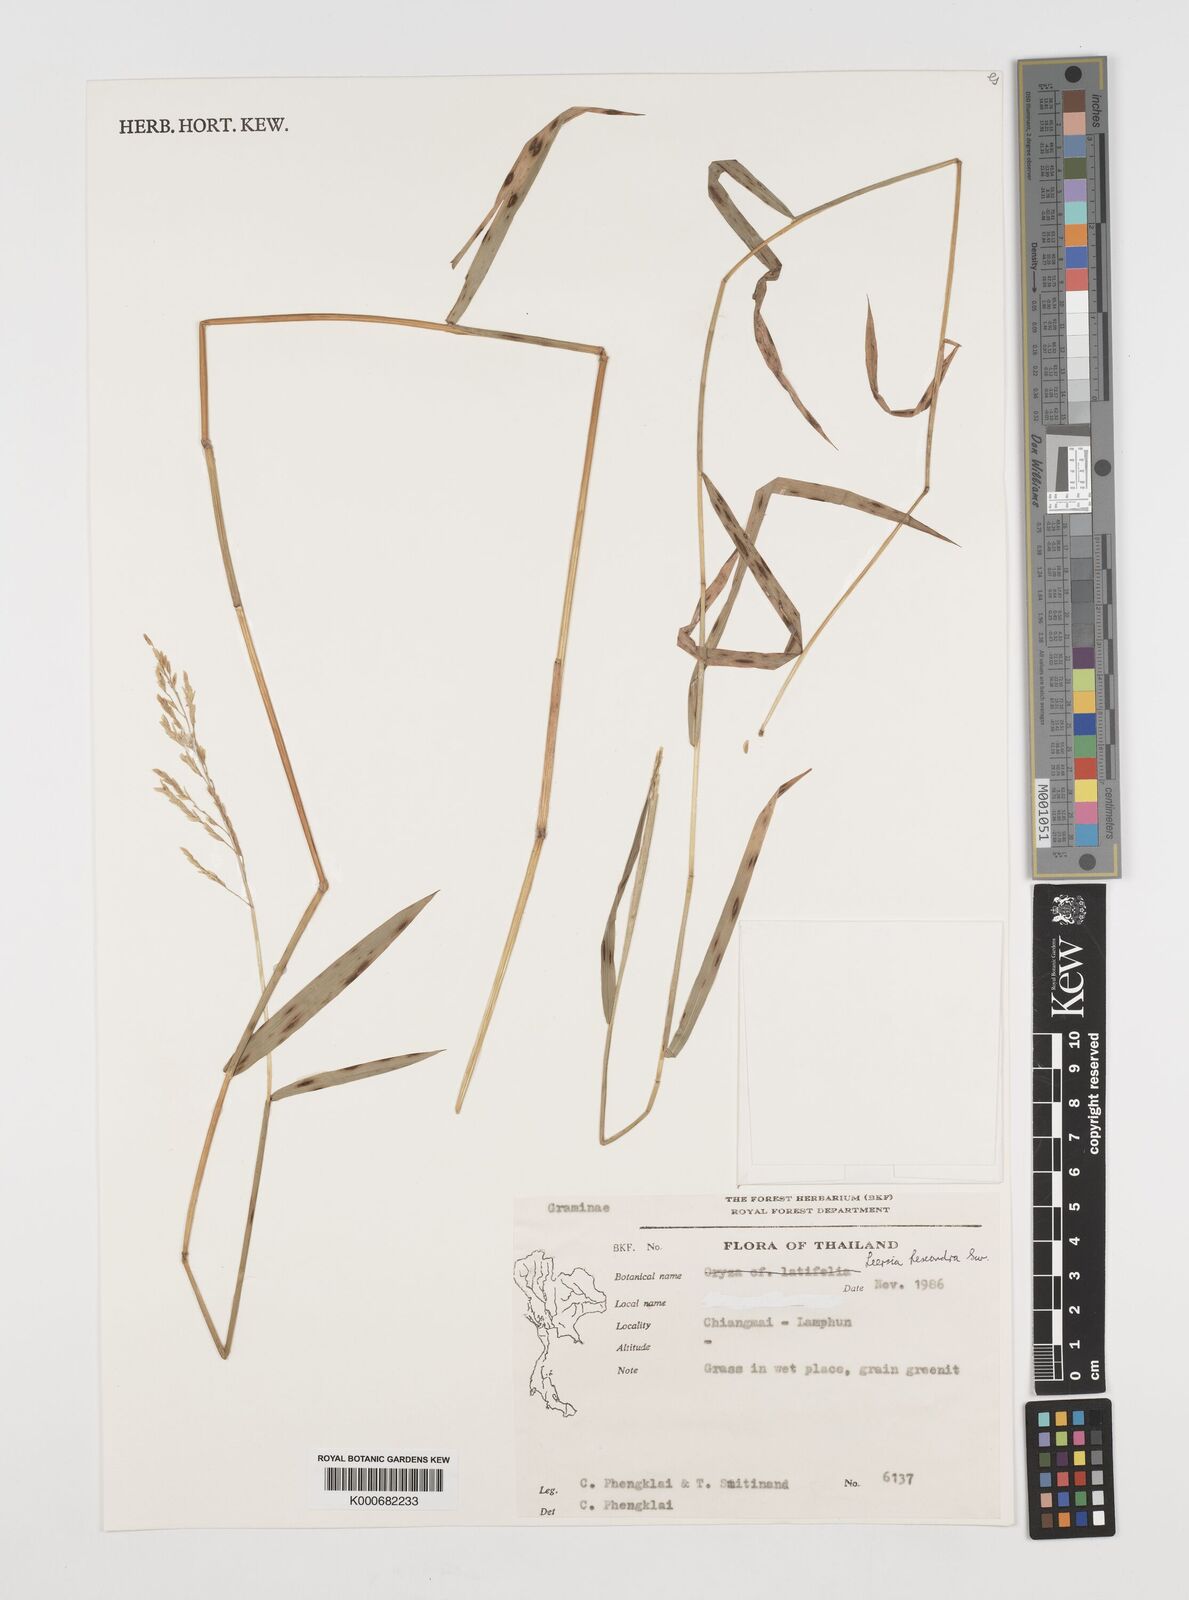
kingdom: Plantae
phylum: Tracheophyta
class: Liliopsida
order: Poales
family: Poaceae
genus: Leersia
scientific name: Leersia hexandra
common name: Southern cut grass
